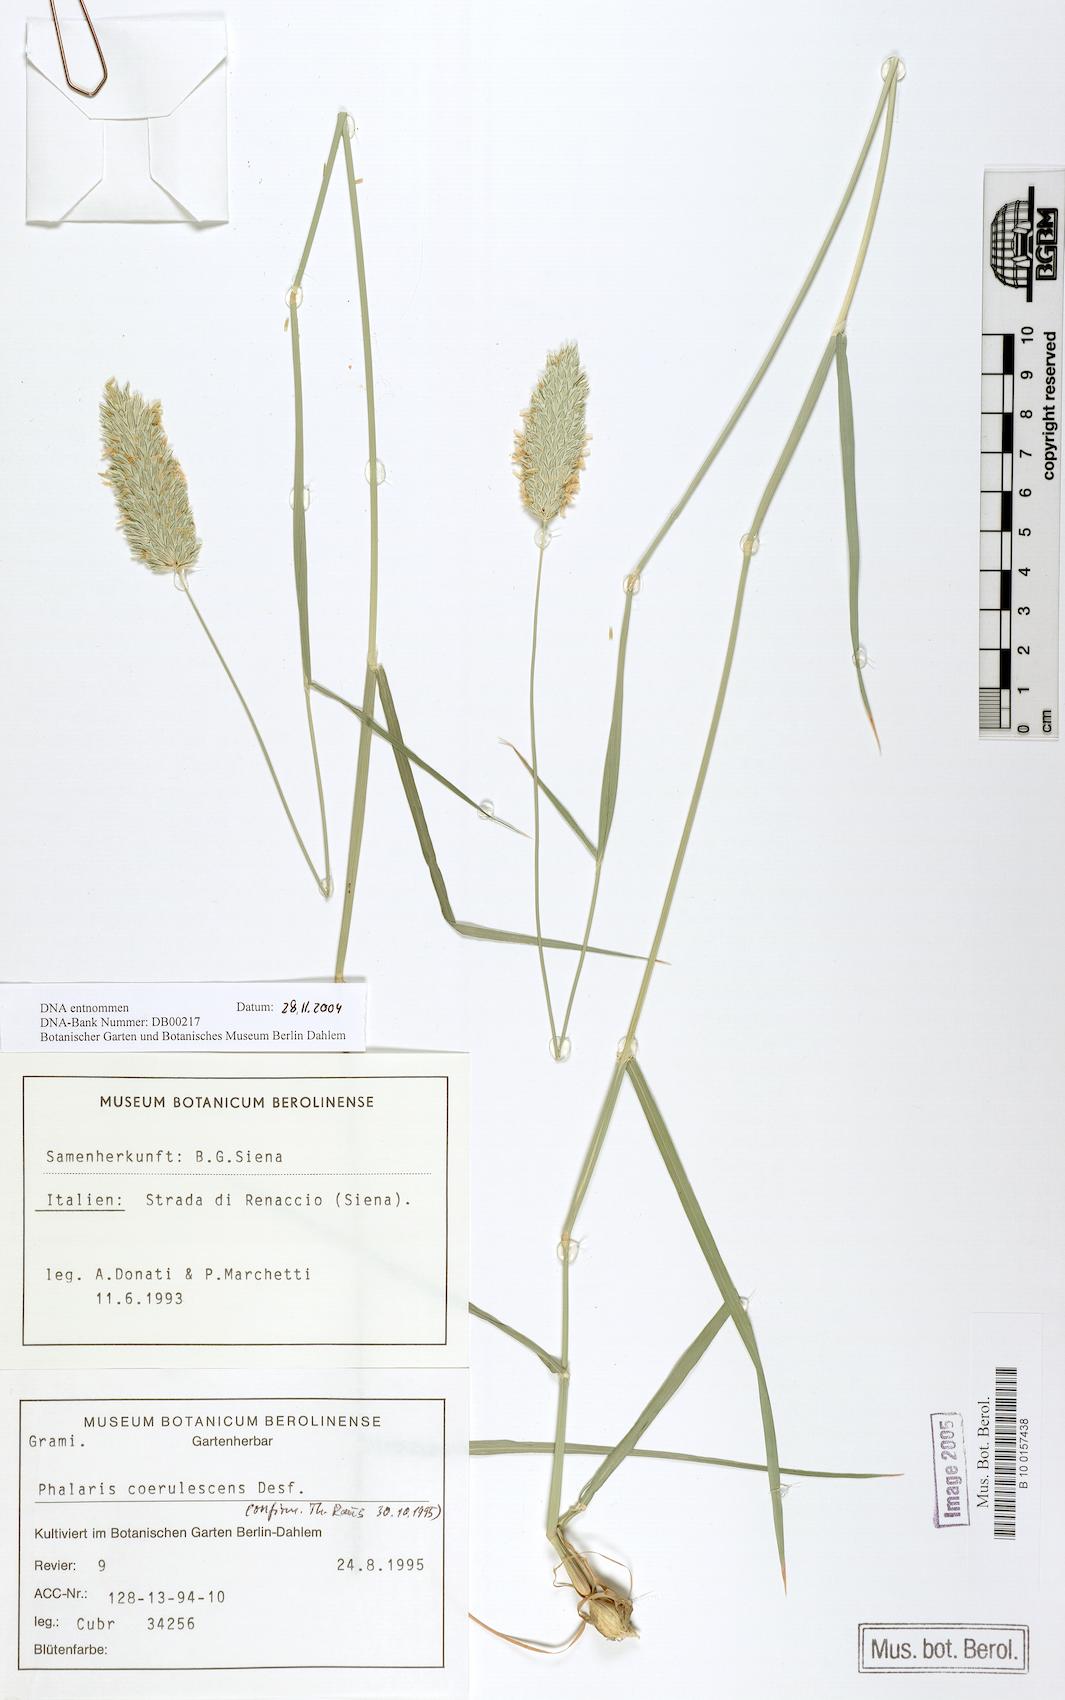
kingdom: Plantae
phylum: Tracheophyta
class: Liliopsida
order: Poales
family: Poaceae
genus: Phalaris
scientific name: Phalaris coerulescens
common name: Sunolgrass
